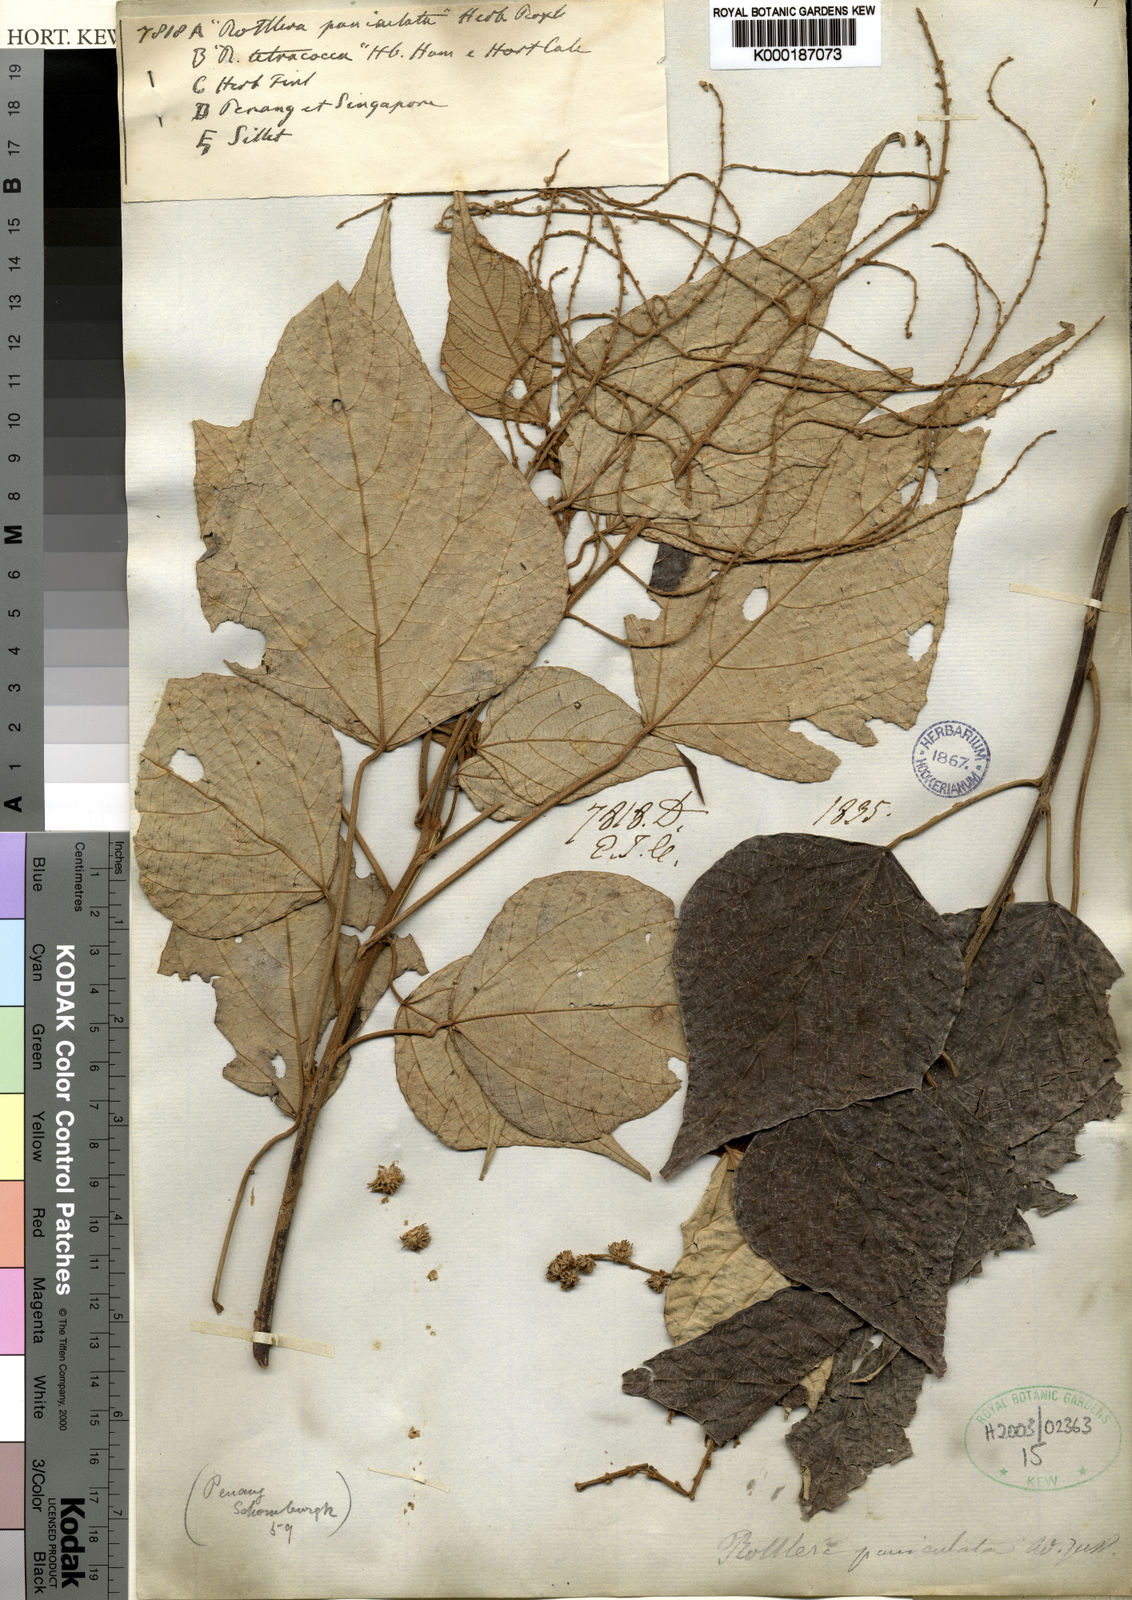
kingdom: Plantae
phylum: Tracheophyta
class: Magnoliopsida
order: Malpighiales
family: Euphorbiaceae
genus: Mallotus
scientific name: Mallotus paniculatus
